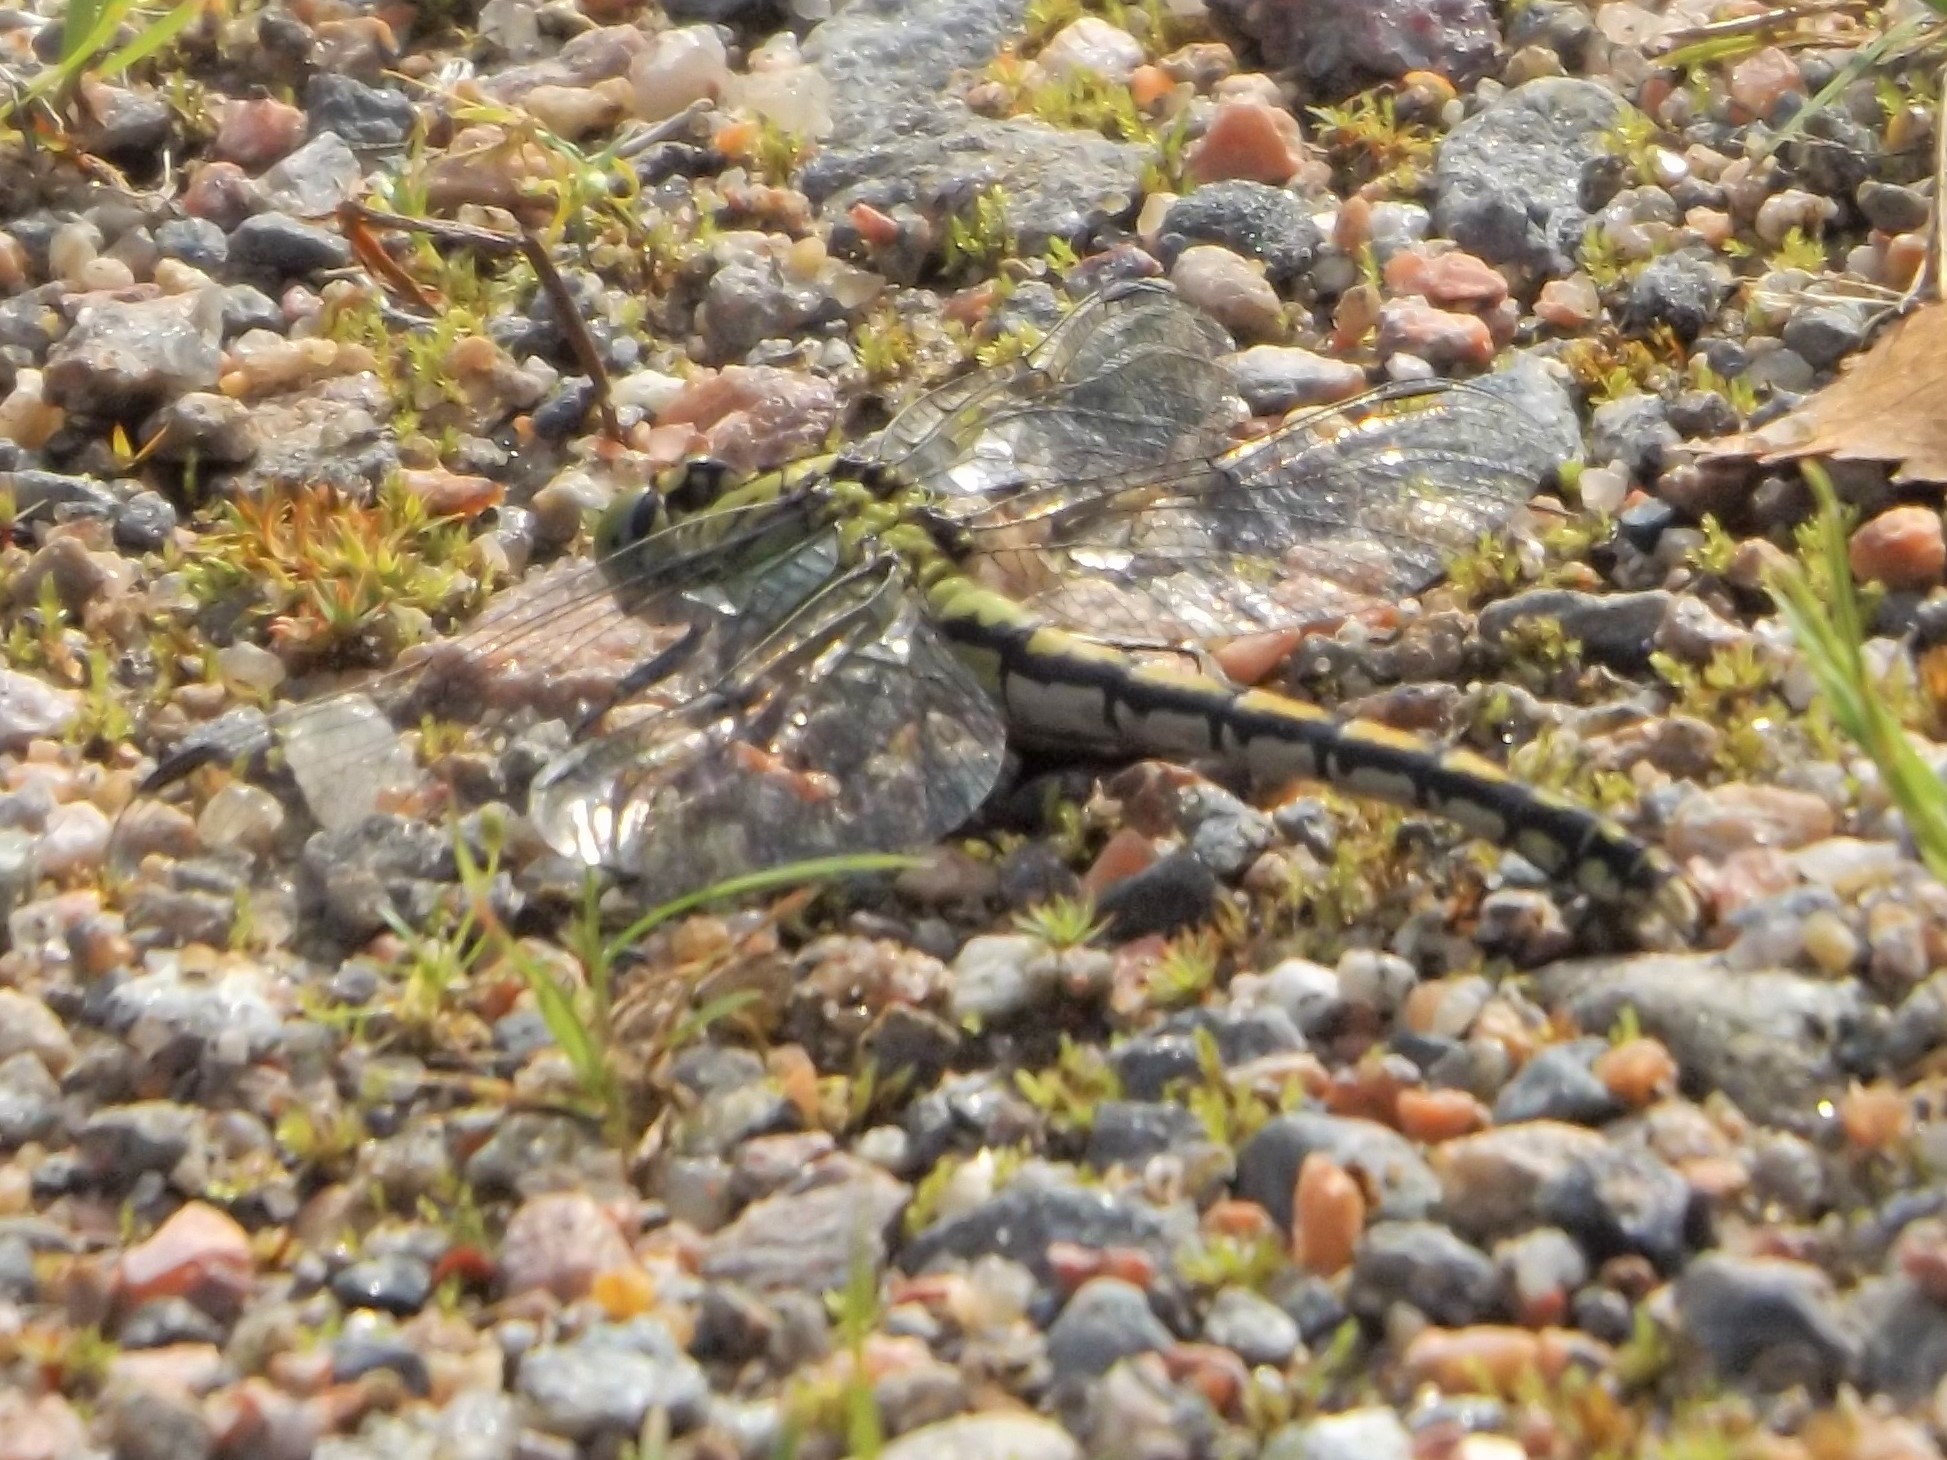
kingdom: Animalia
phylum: Arthropoda
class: Insecta
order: Odonata
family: Gomphidae
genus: Ophiogomphus
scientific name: Ophiogomphus cecilia
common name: Green snaketail
